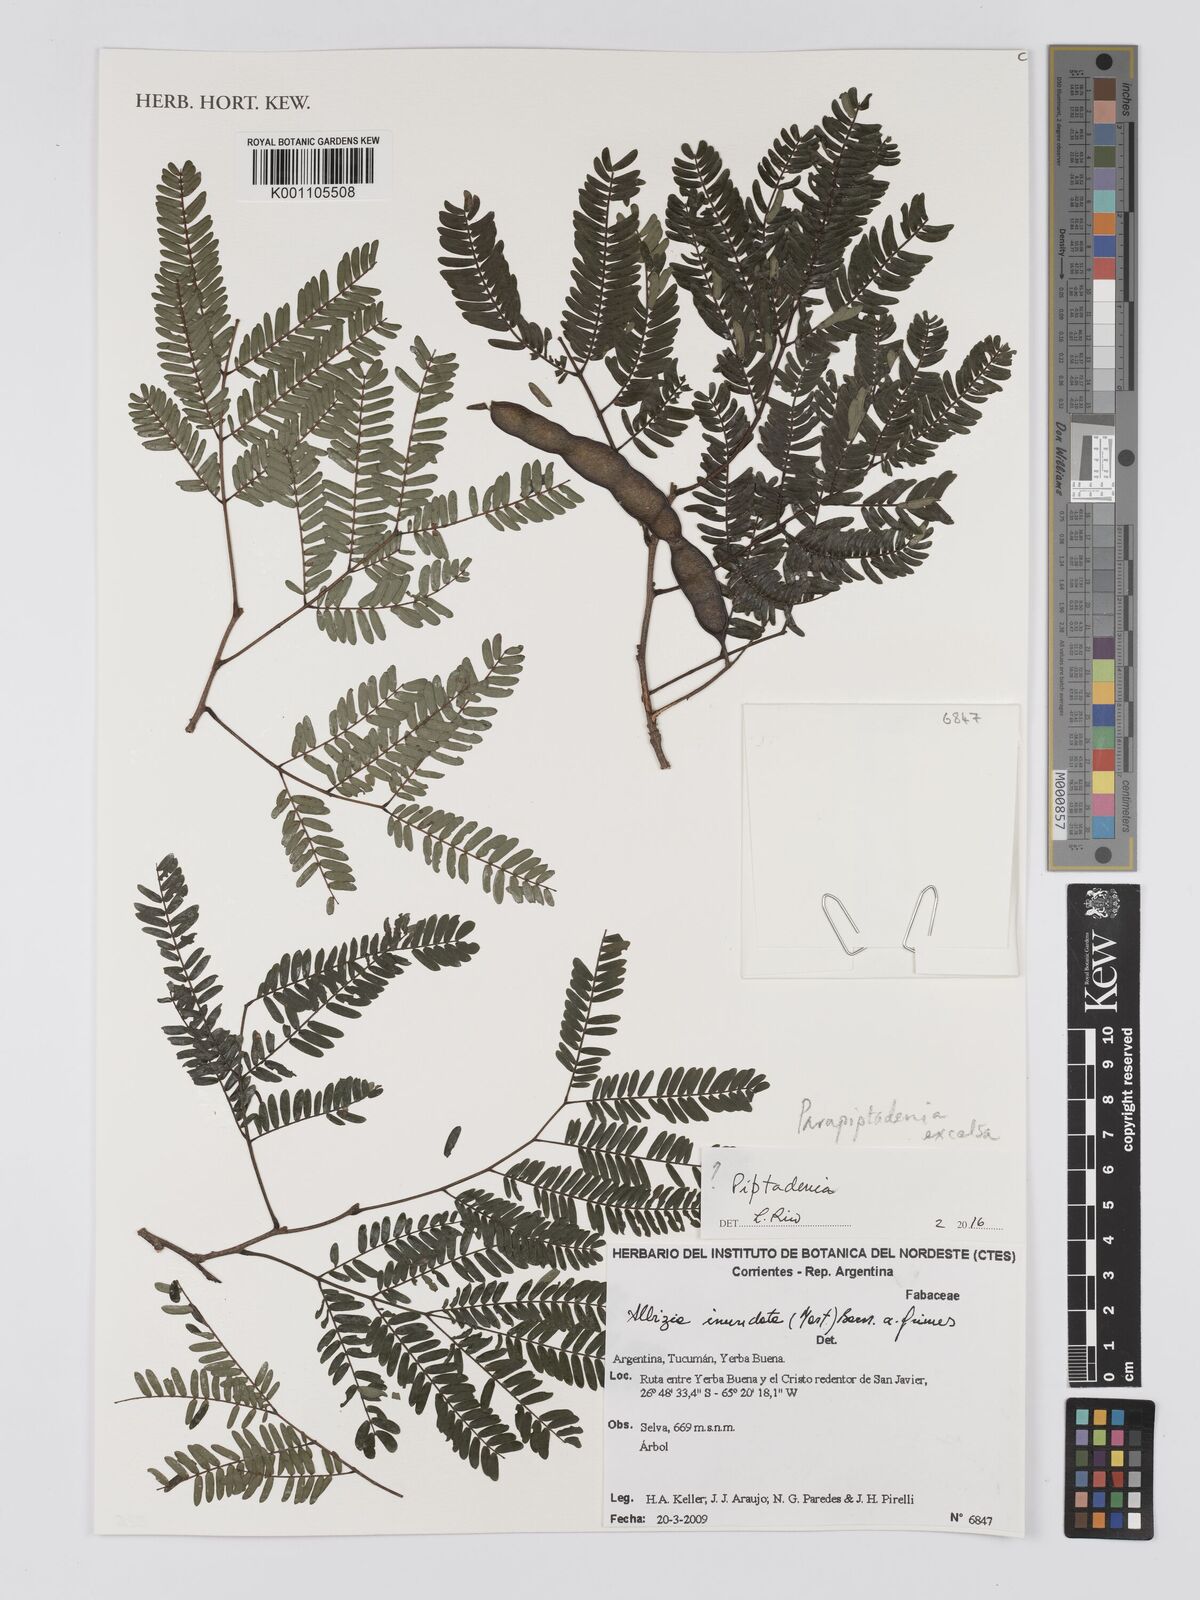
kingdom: Plantae
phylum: Tracheophyta
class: Magnoliopsida
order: Fabales
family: Fabaceae
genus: Piptadenia
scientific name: Piptadenia
